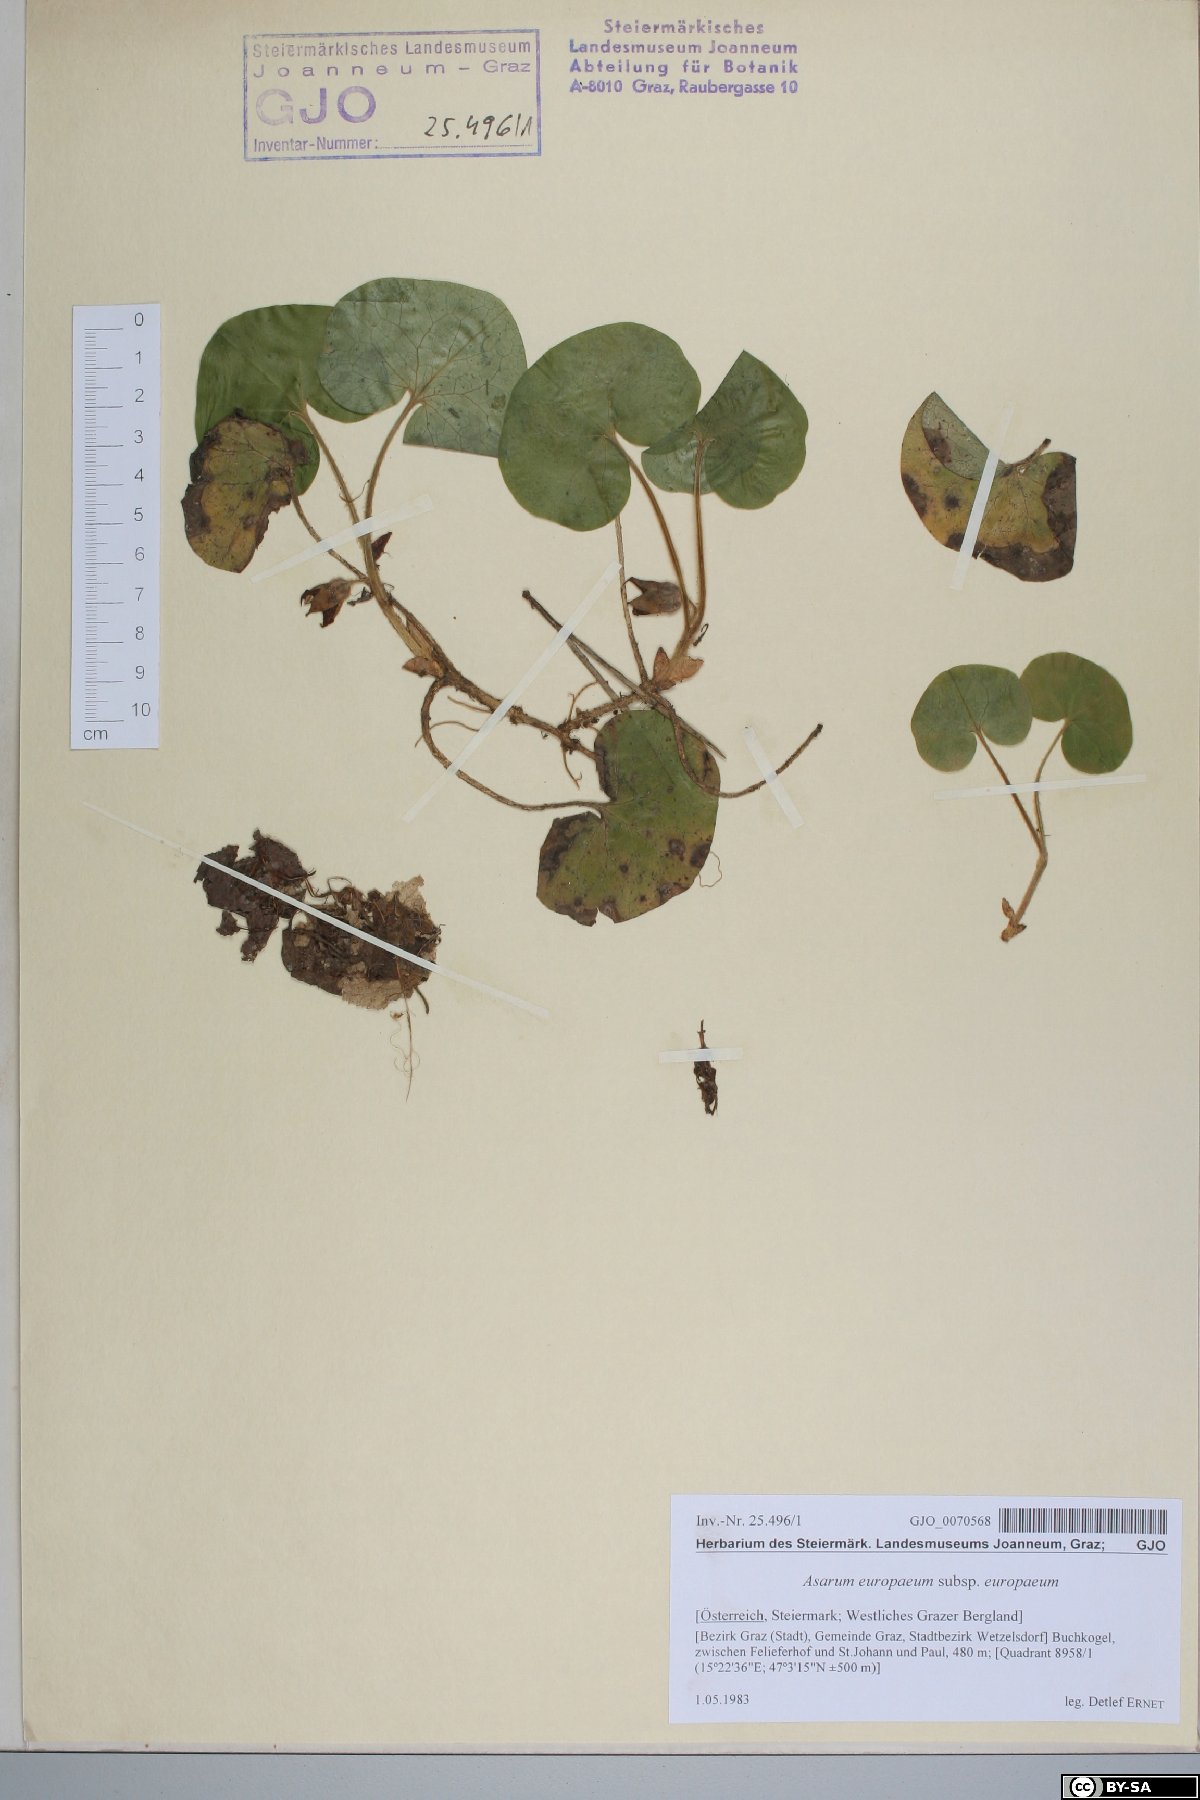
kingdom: Plantae
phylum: Tracheophyta
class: Magnoliopsida
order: Piperales
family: Aristolochiaceae
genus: Asarum
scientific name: Asarum europaeum
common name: Asarabacca
